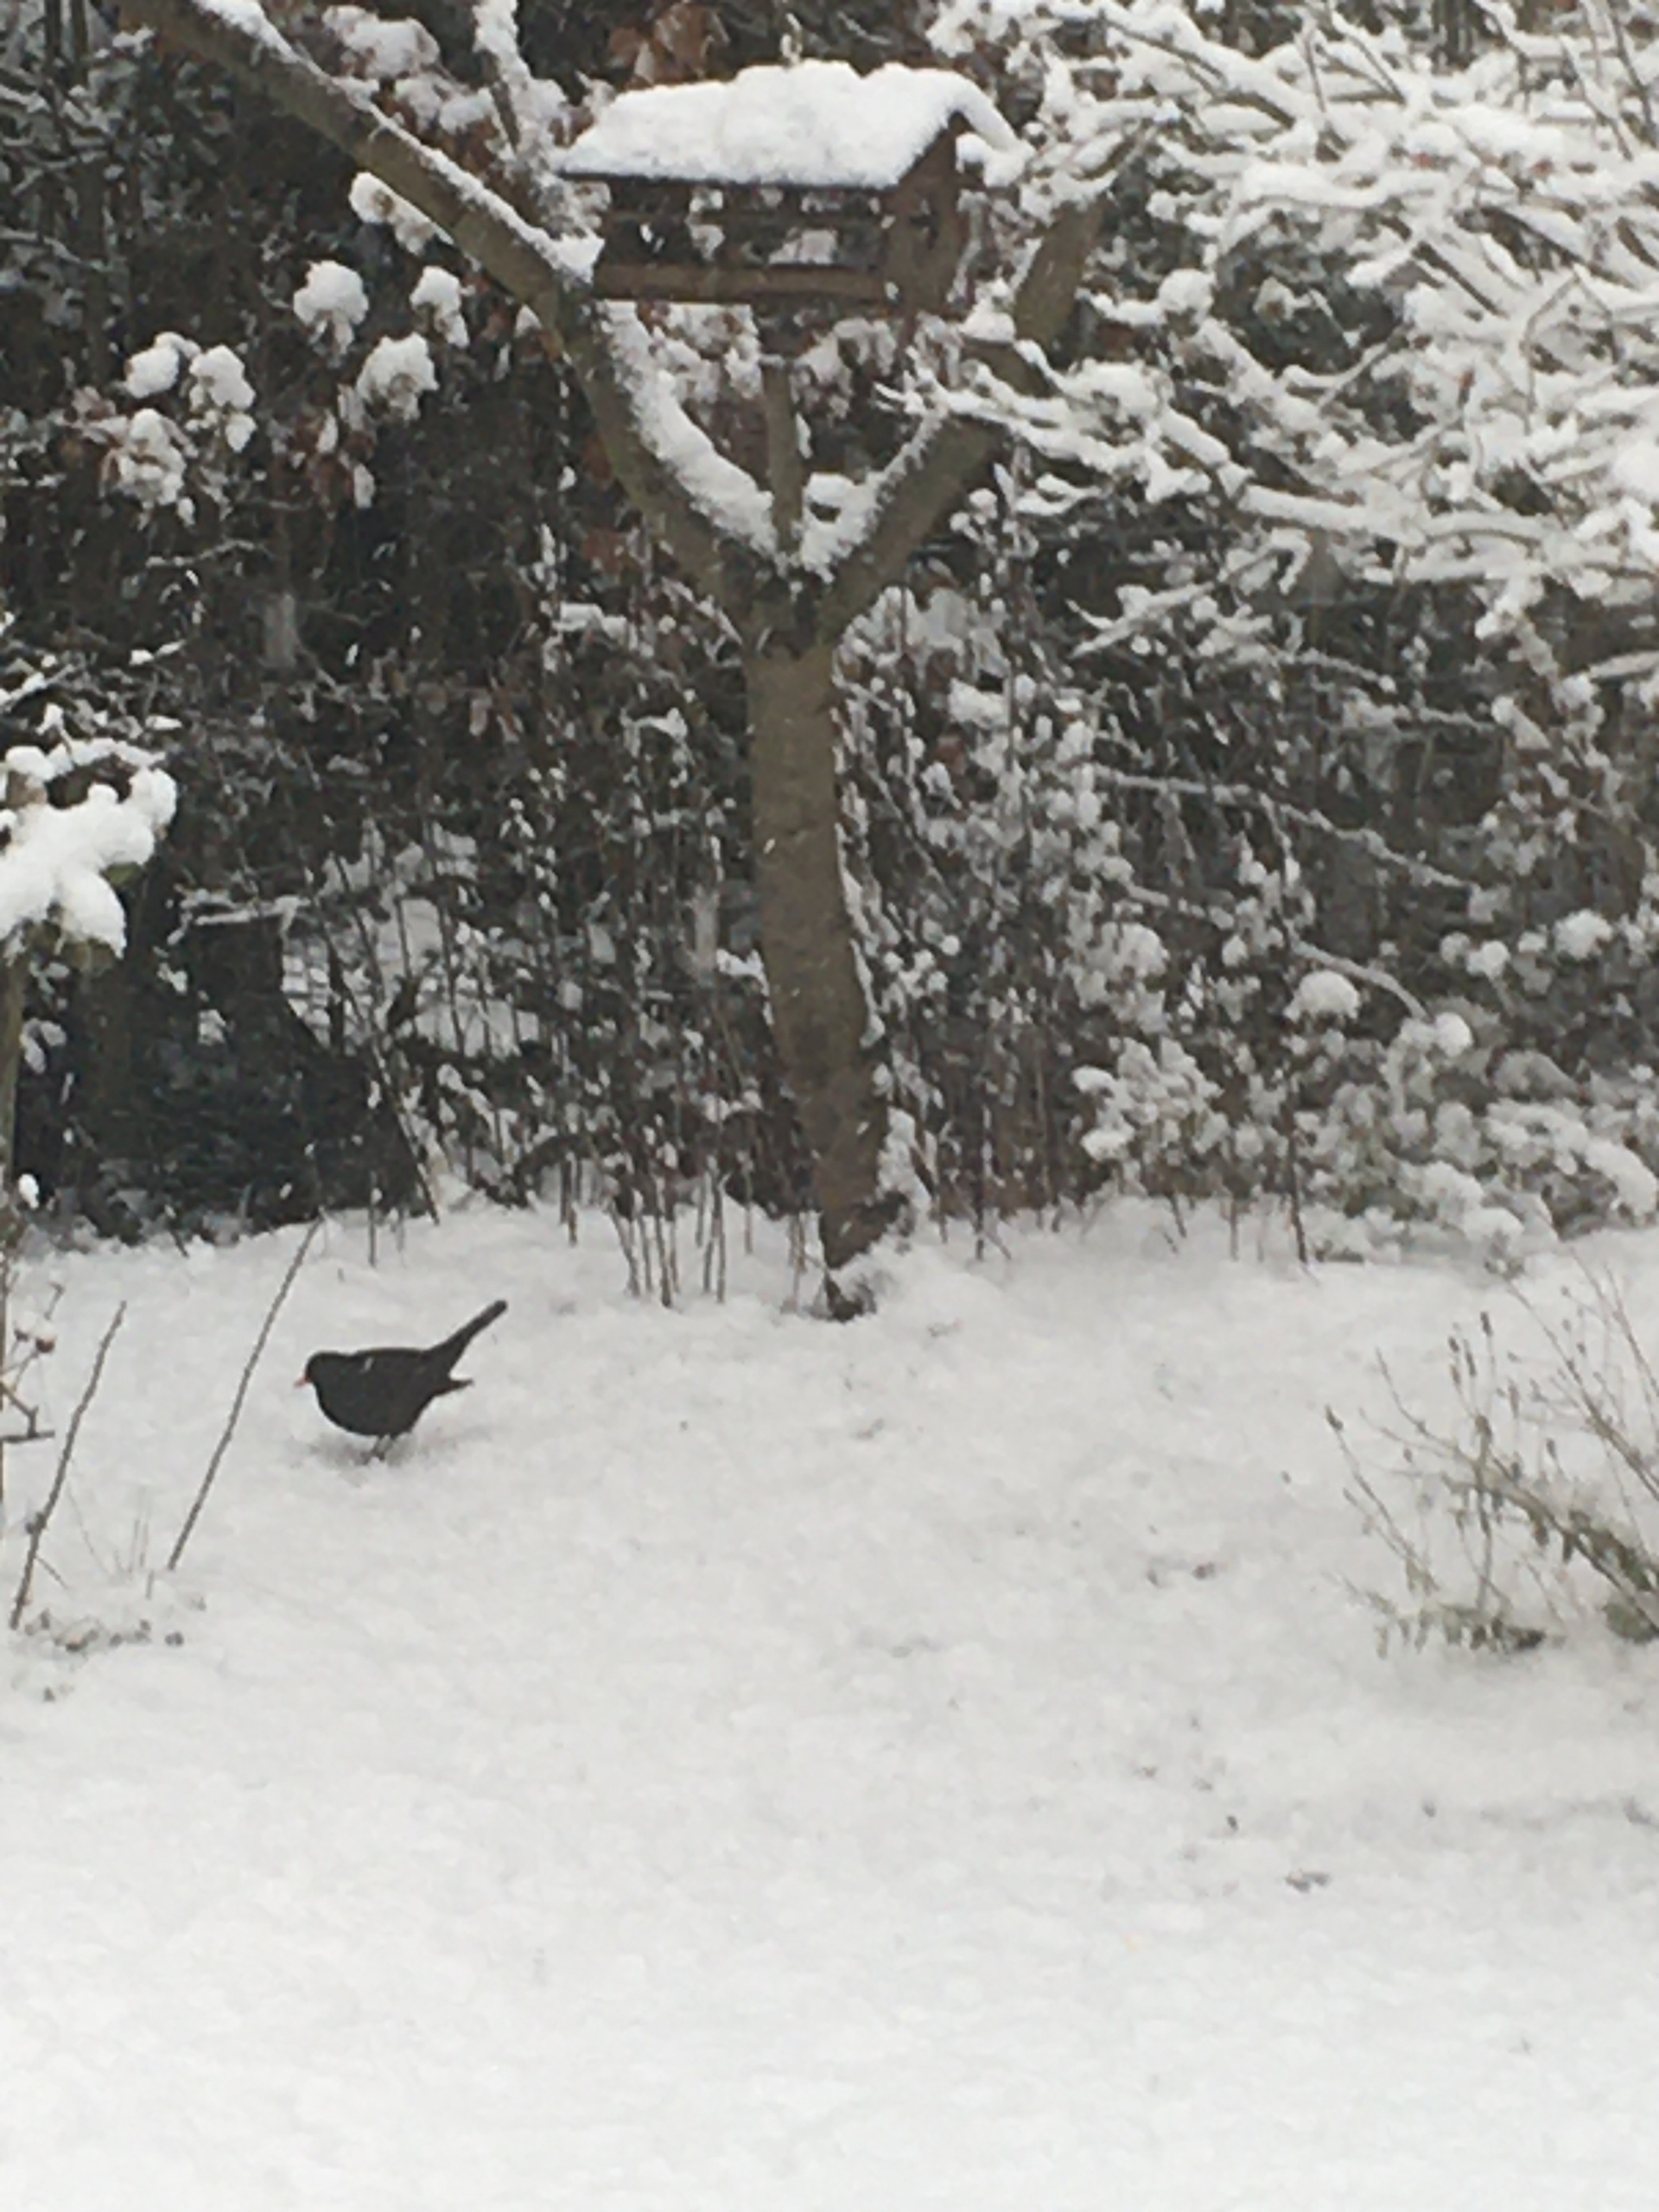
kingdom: Animalia
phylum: Chordata
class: Aves
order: Passeriformes
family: Turdidae
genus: Turdus
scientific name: Turdus merula
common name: Solsort
